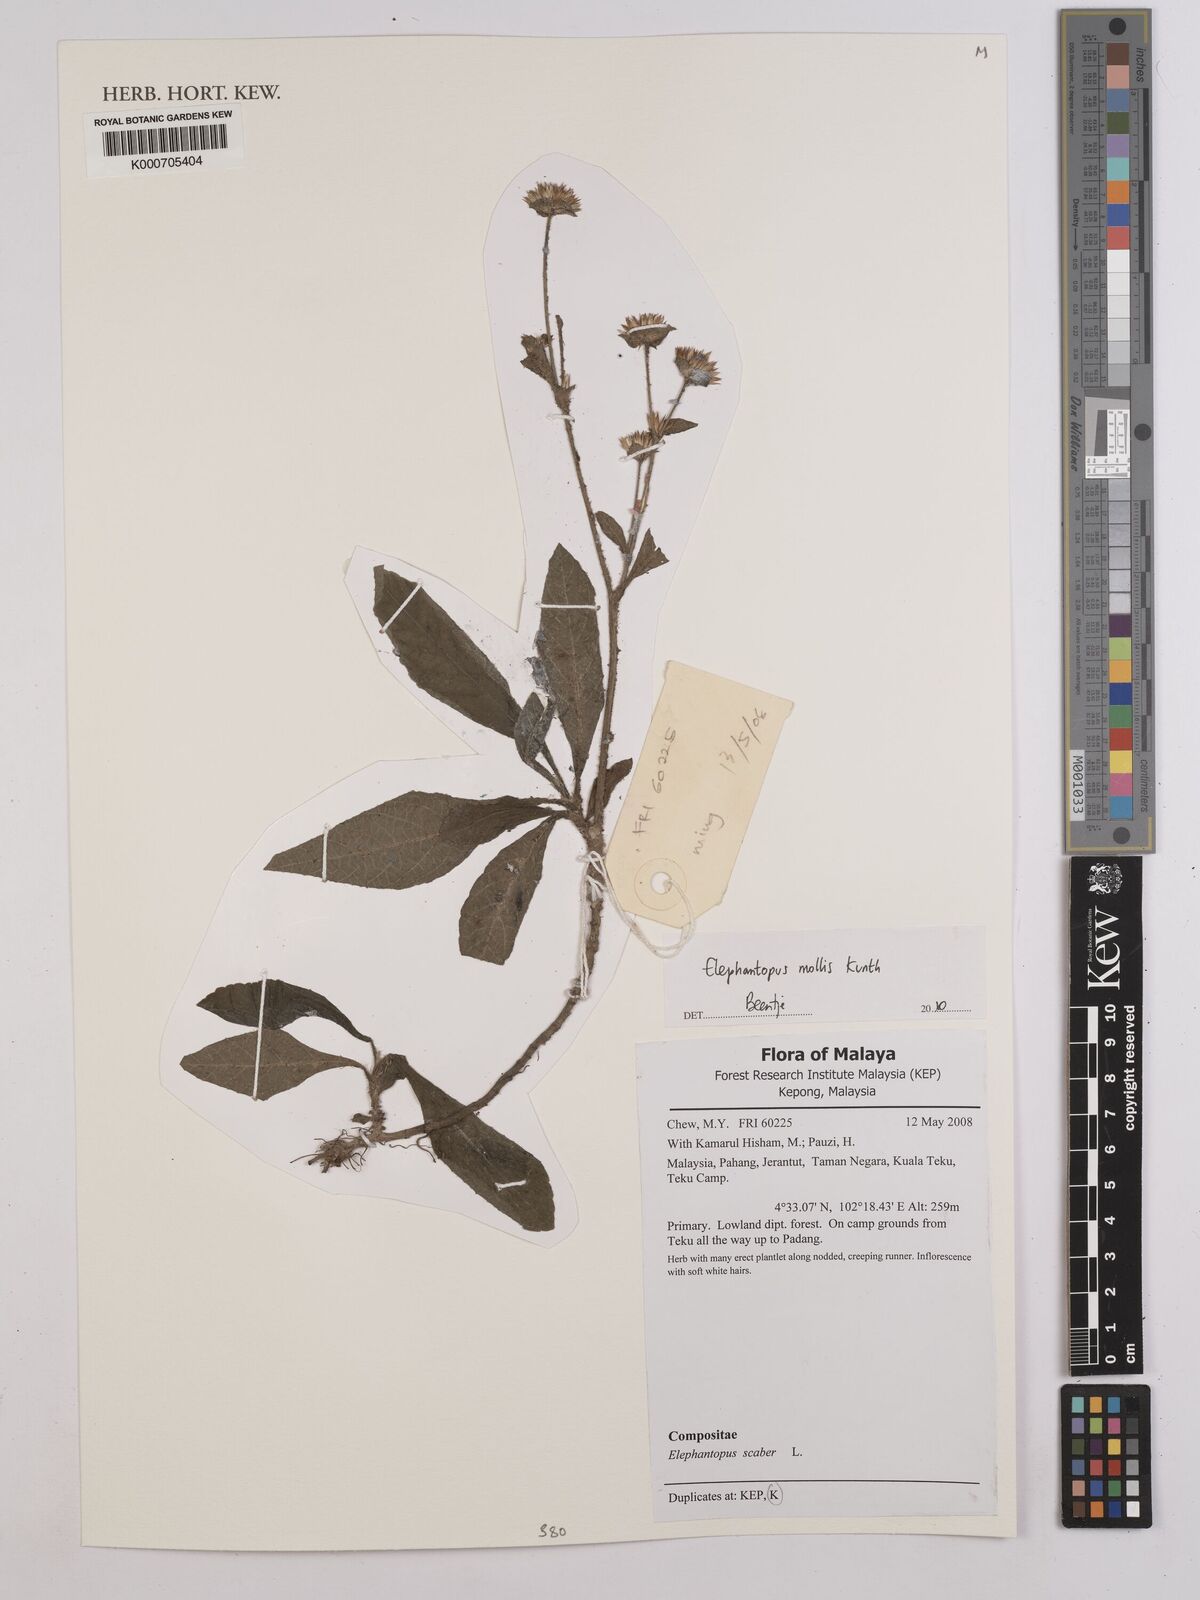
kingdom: Plantae
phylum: Tracheophyta
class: Magnoliopsida
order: Asterales
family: Asteraceae
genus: Elephantopus
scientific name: Elephantopus mollis
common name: Soft elephantsfoot
